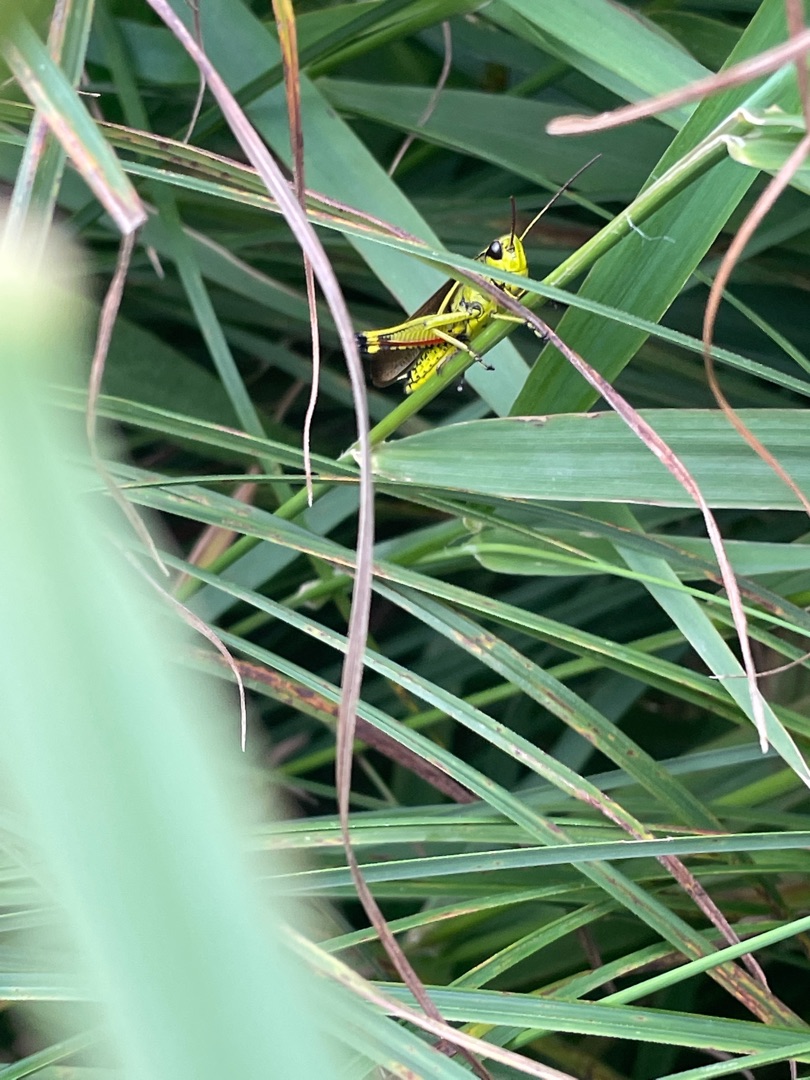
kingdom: Animalia
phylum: Arthropoda
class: Insecta
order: Orthoptera
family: Acrididae
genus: Stethophyma
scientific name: Stethophyma grossum
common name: Sumpgræshoppe
